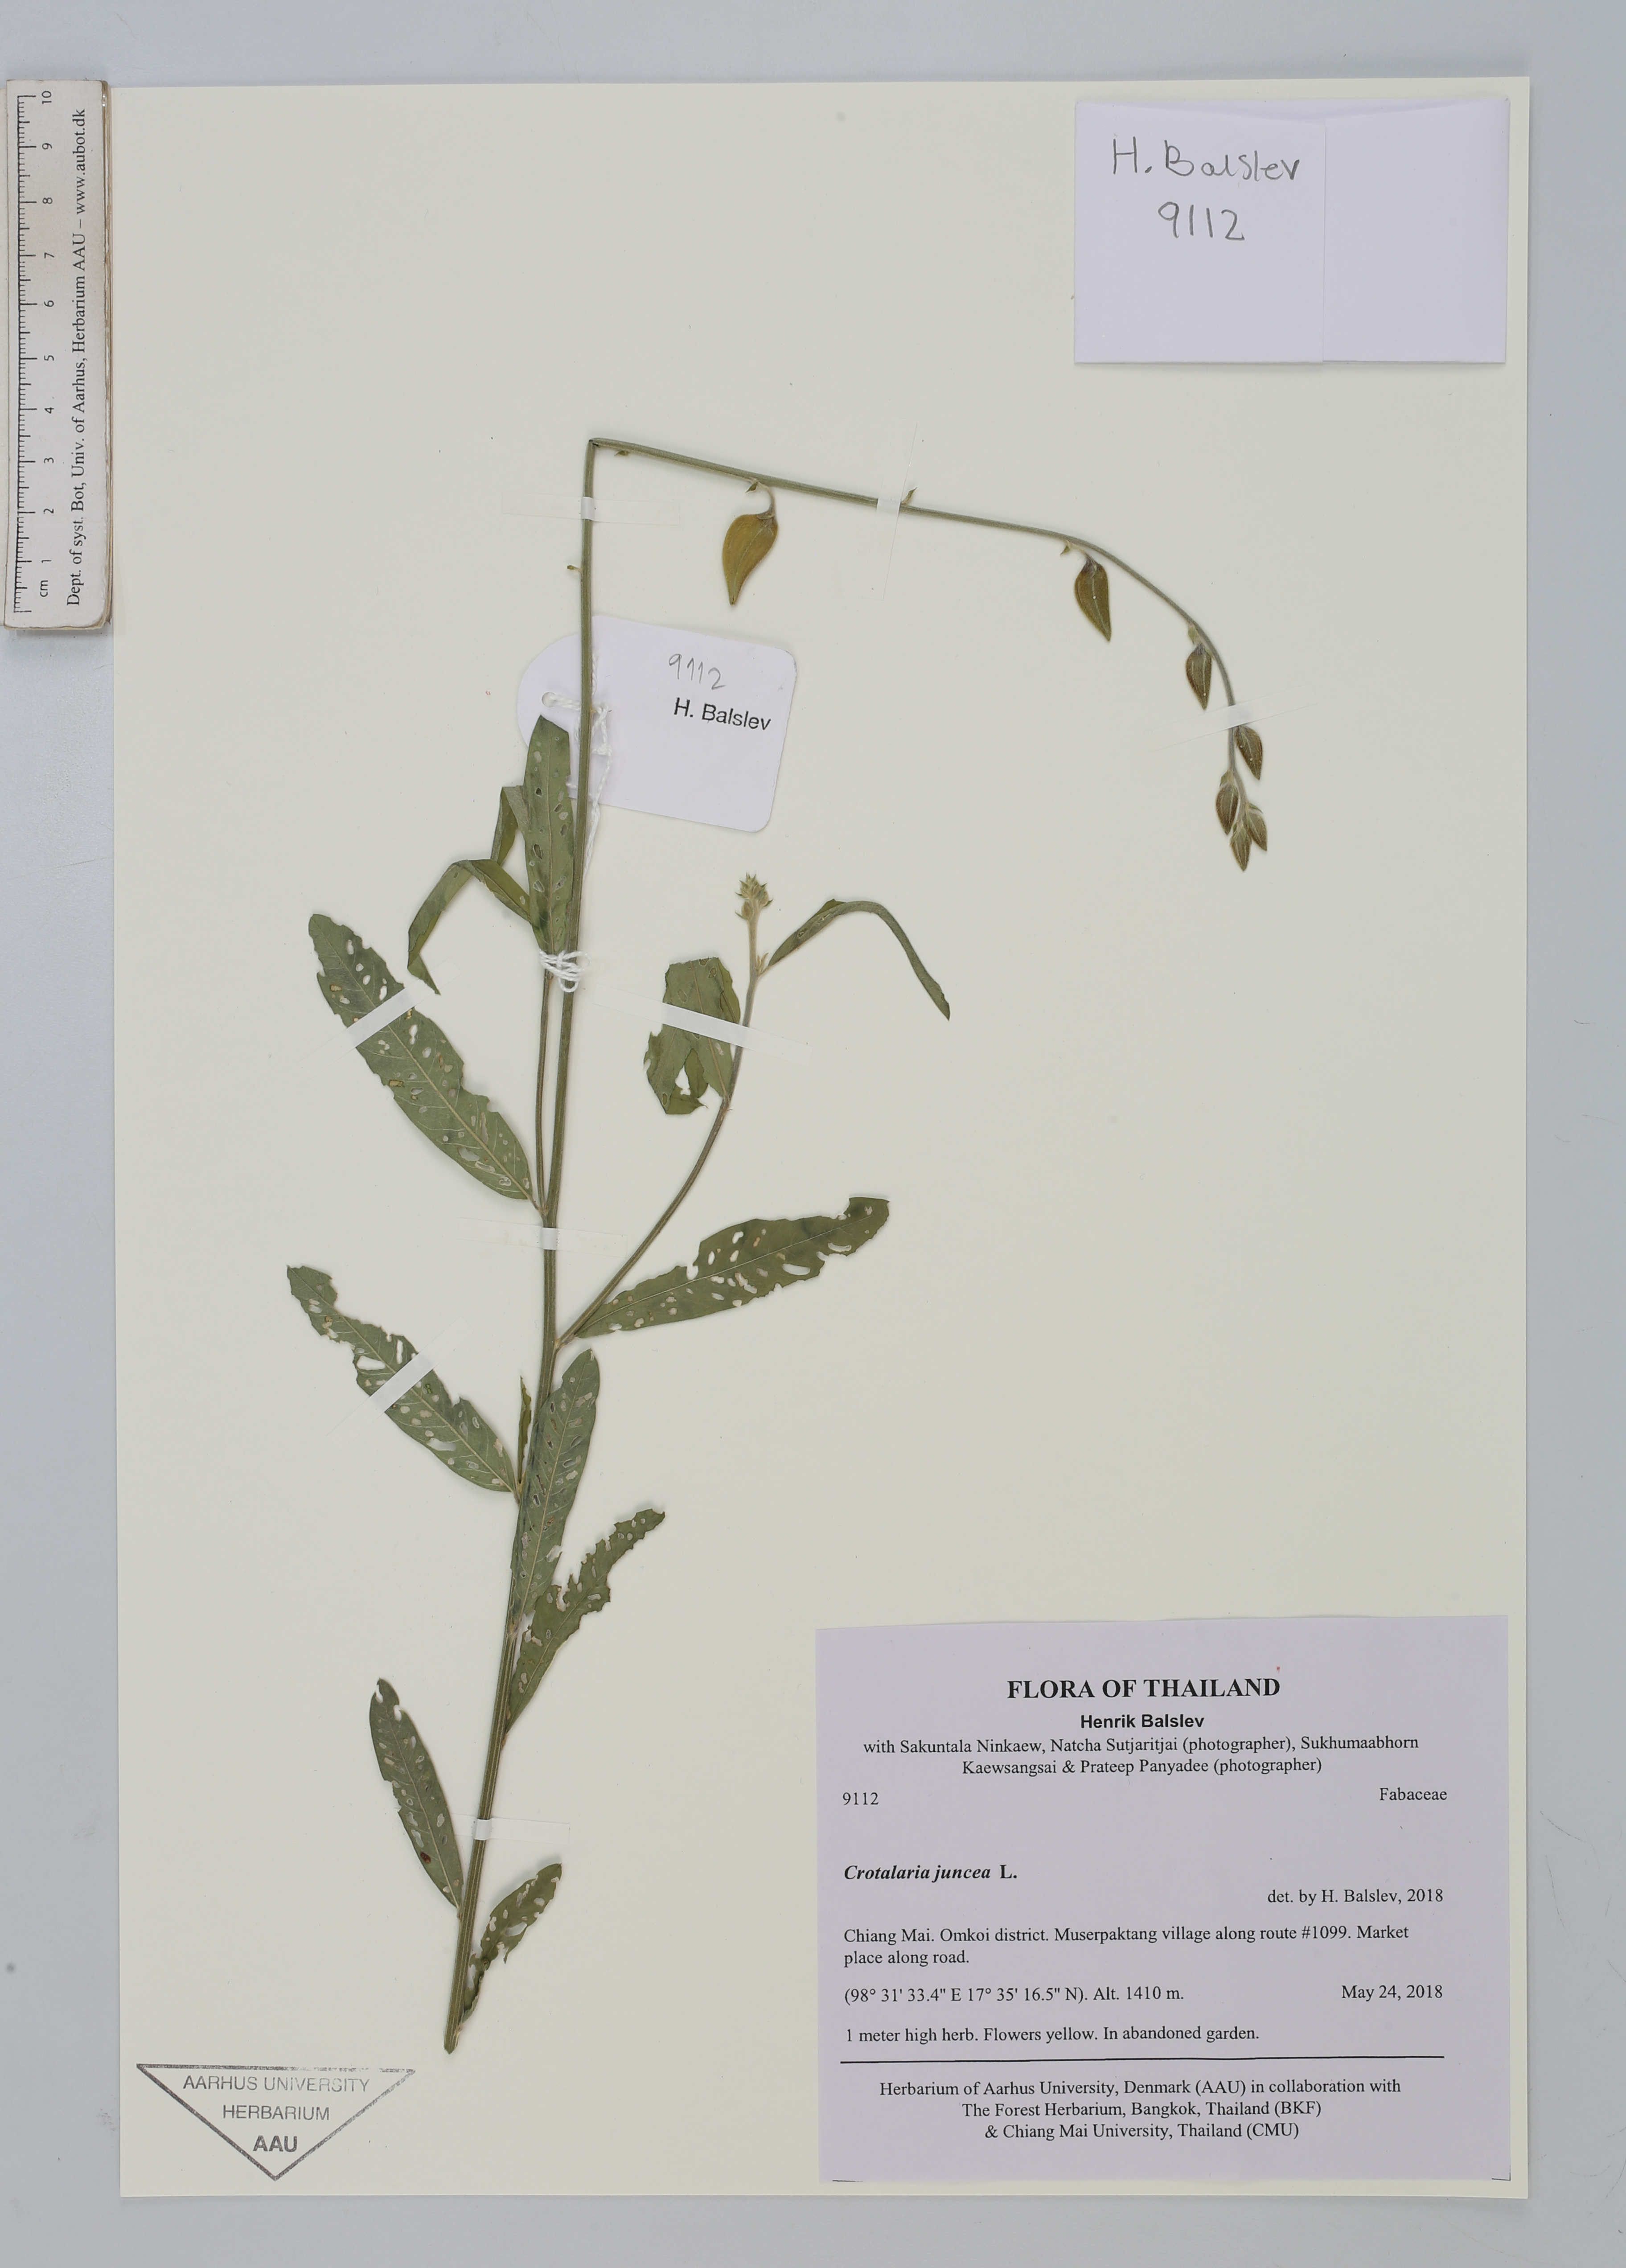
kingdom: Plantae
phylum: Tracheophyta
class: Magnoliopsida
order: Fabales
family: Fabaceae
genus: Crotalaria
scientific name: Crotalaria juncea
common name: Sunn hemp
